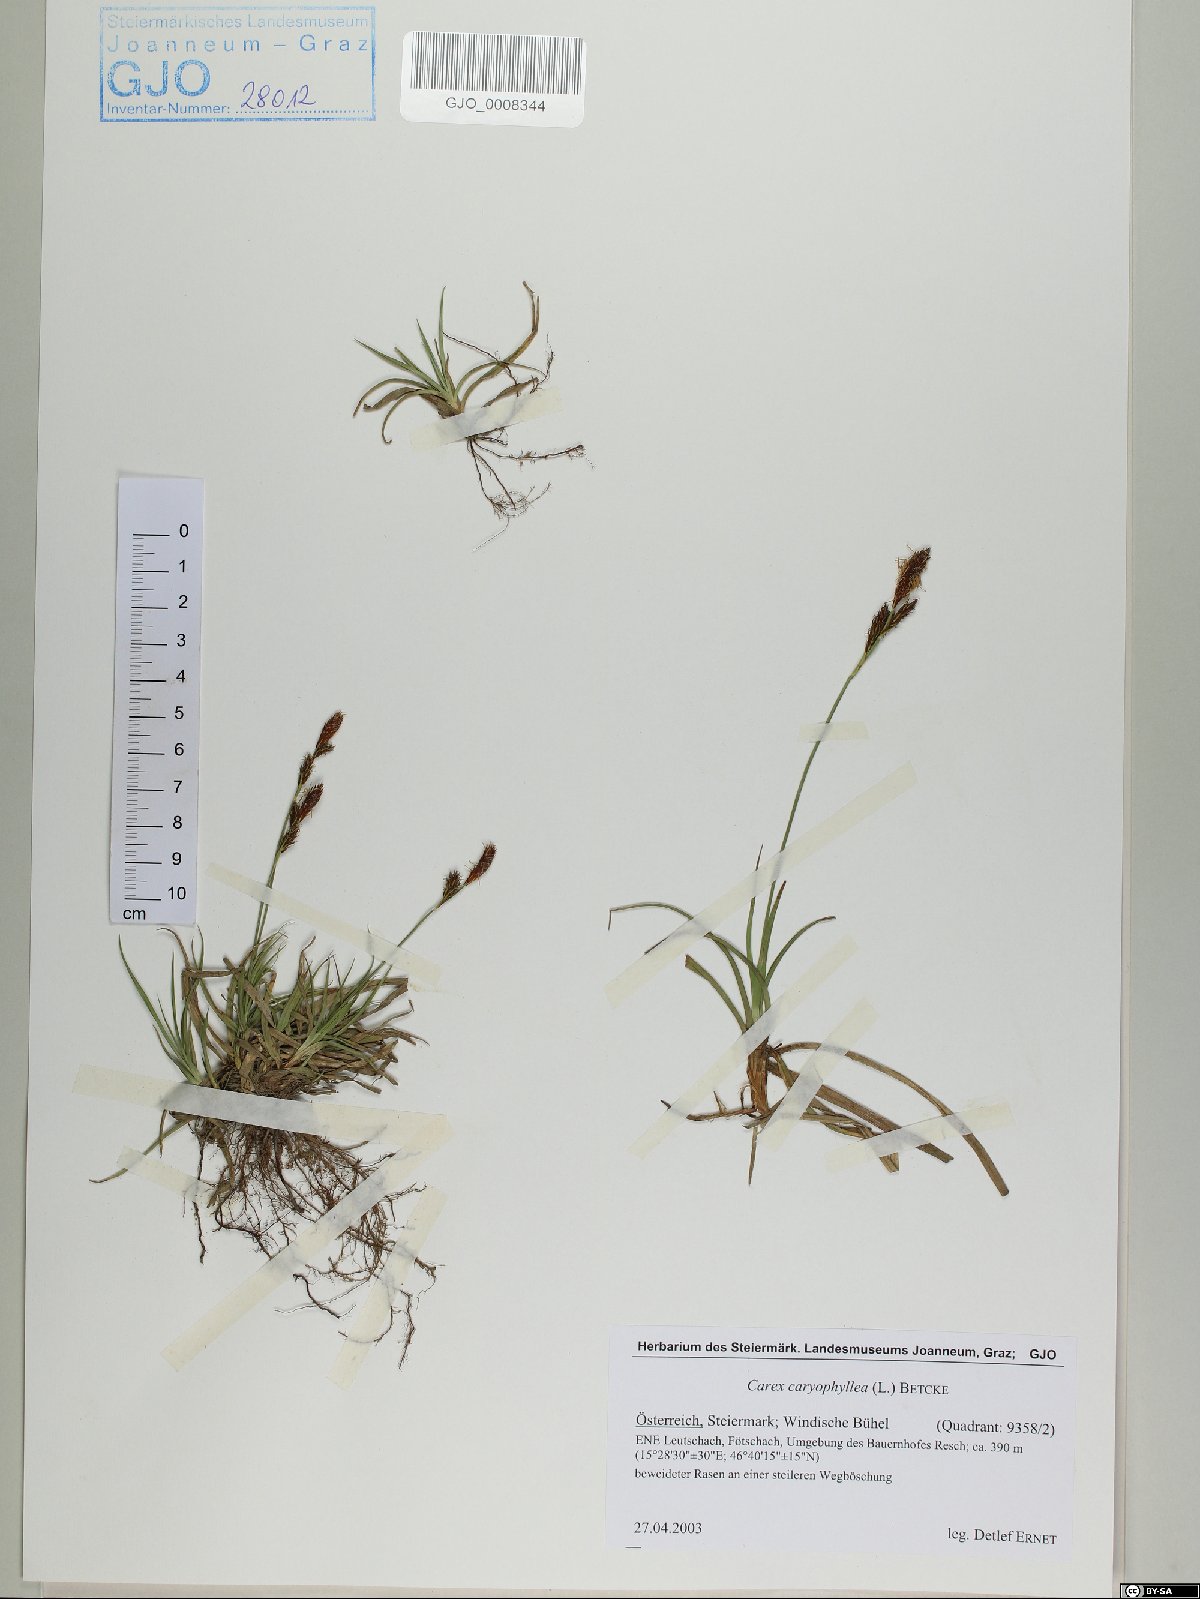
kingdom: Plantae
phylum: Tracheophyta
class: Liliopsida
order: Poales
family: Cyperaceae
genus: Carex
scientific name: Carex caryophyllea
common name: Spring sedge
